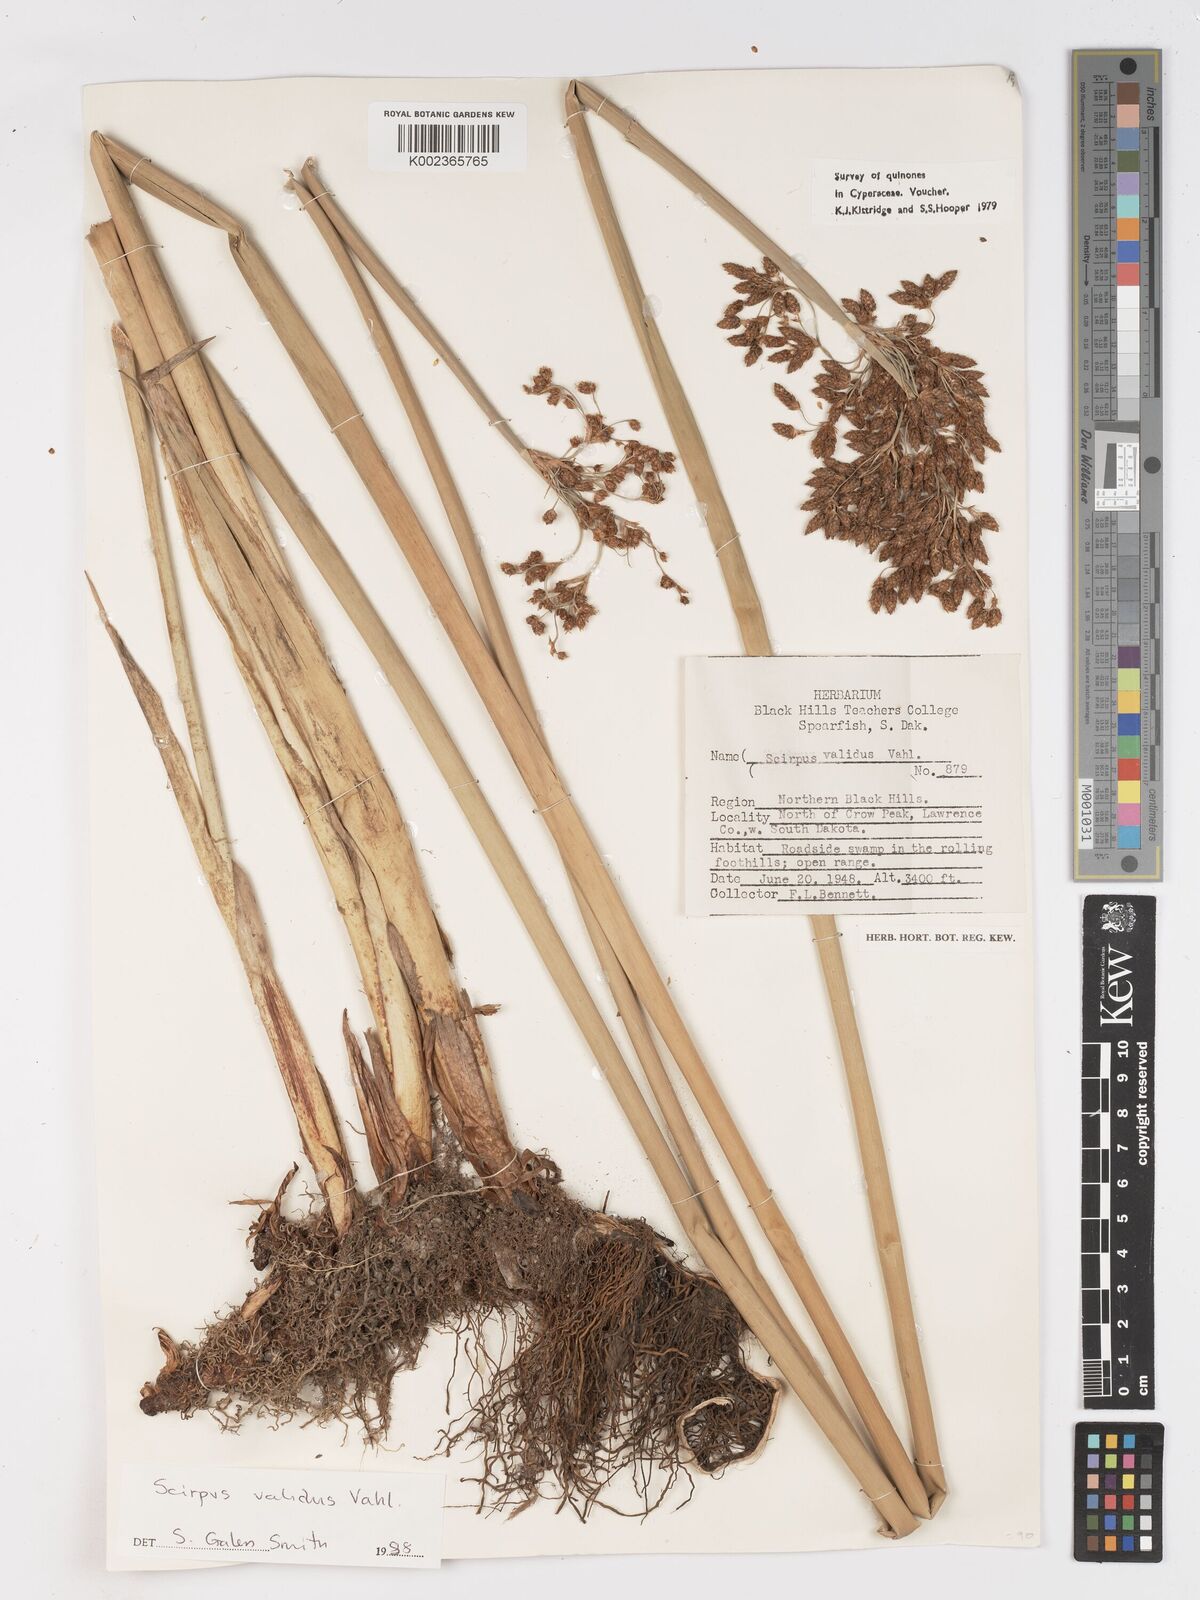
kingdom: Plantae
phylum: Tracheophyta
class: Liliopsida
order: Poales
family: Cyperaceae
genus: Schoenoplectus
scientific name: Schoenoplectus tabernaemontani
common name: Grey club-rush
